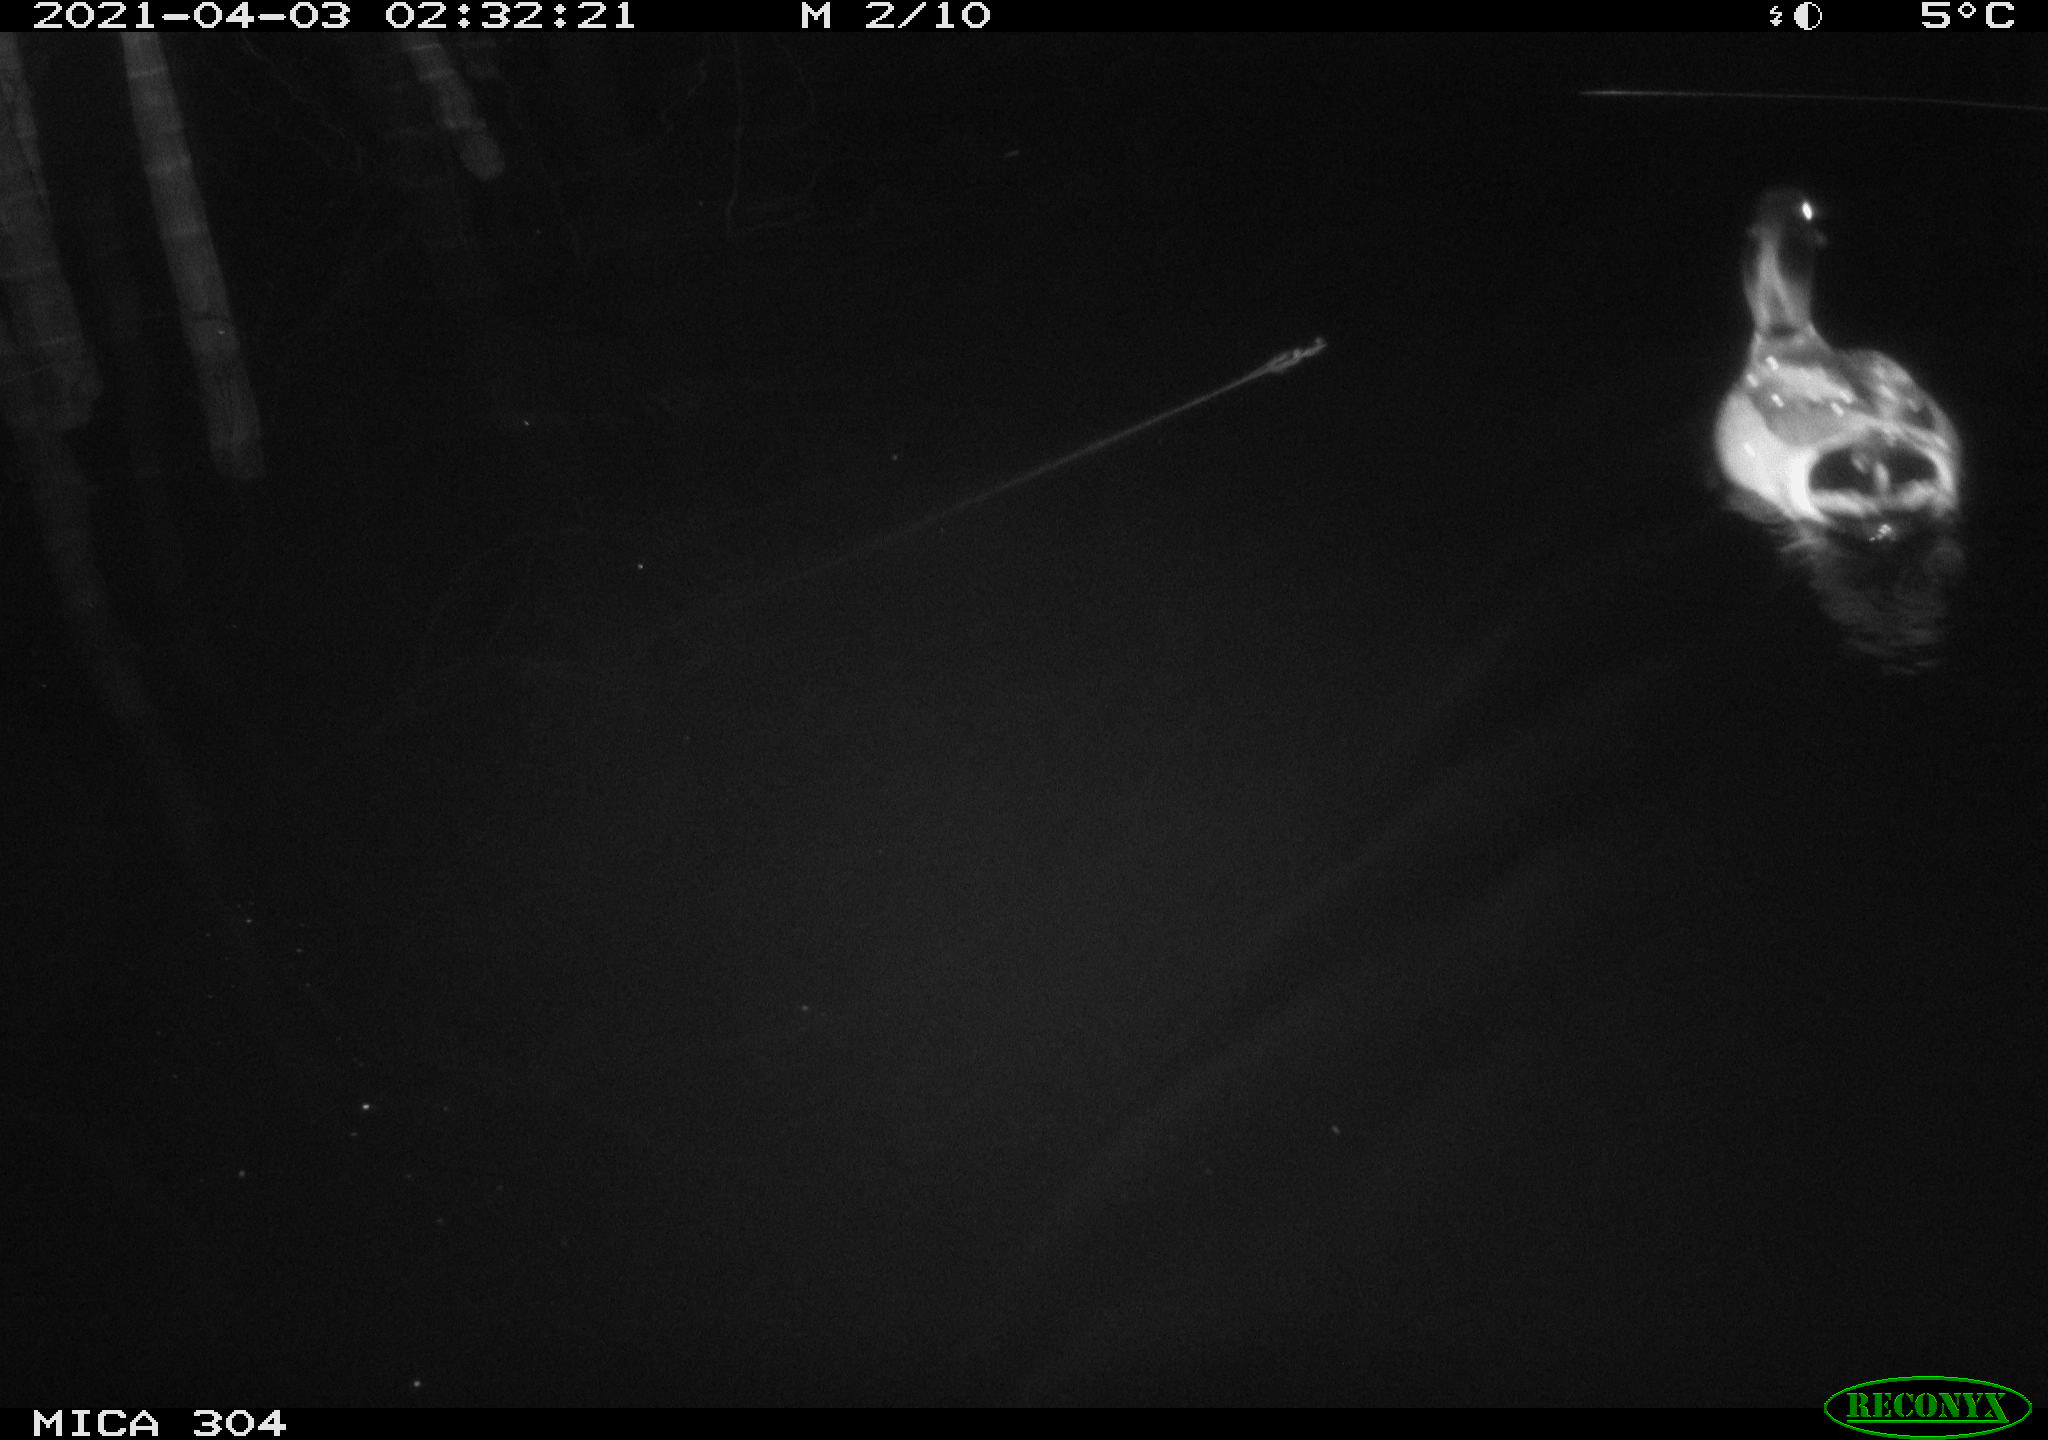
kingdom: Animalia
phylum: Chordata
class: Aves
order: Anseriformes
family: Anatidae
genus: Anas
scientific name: Anas
